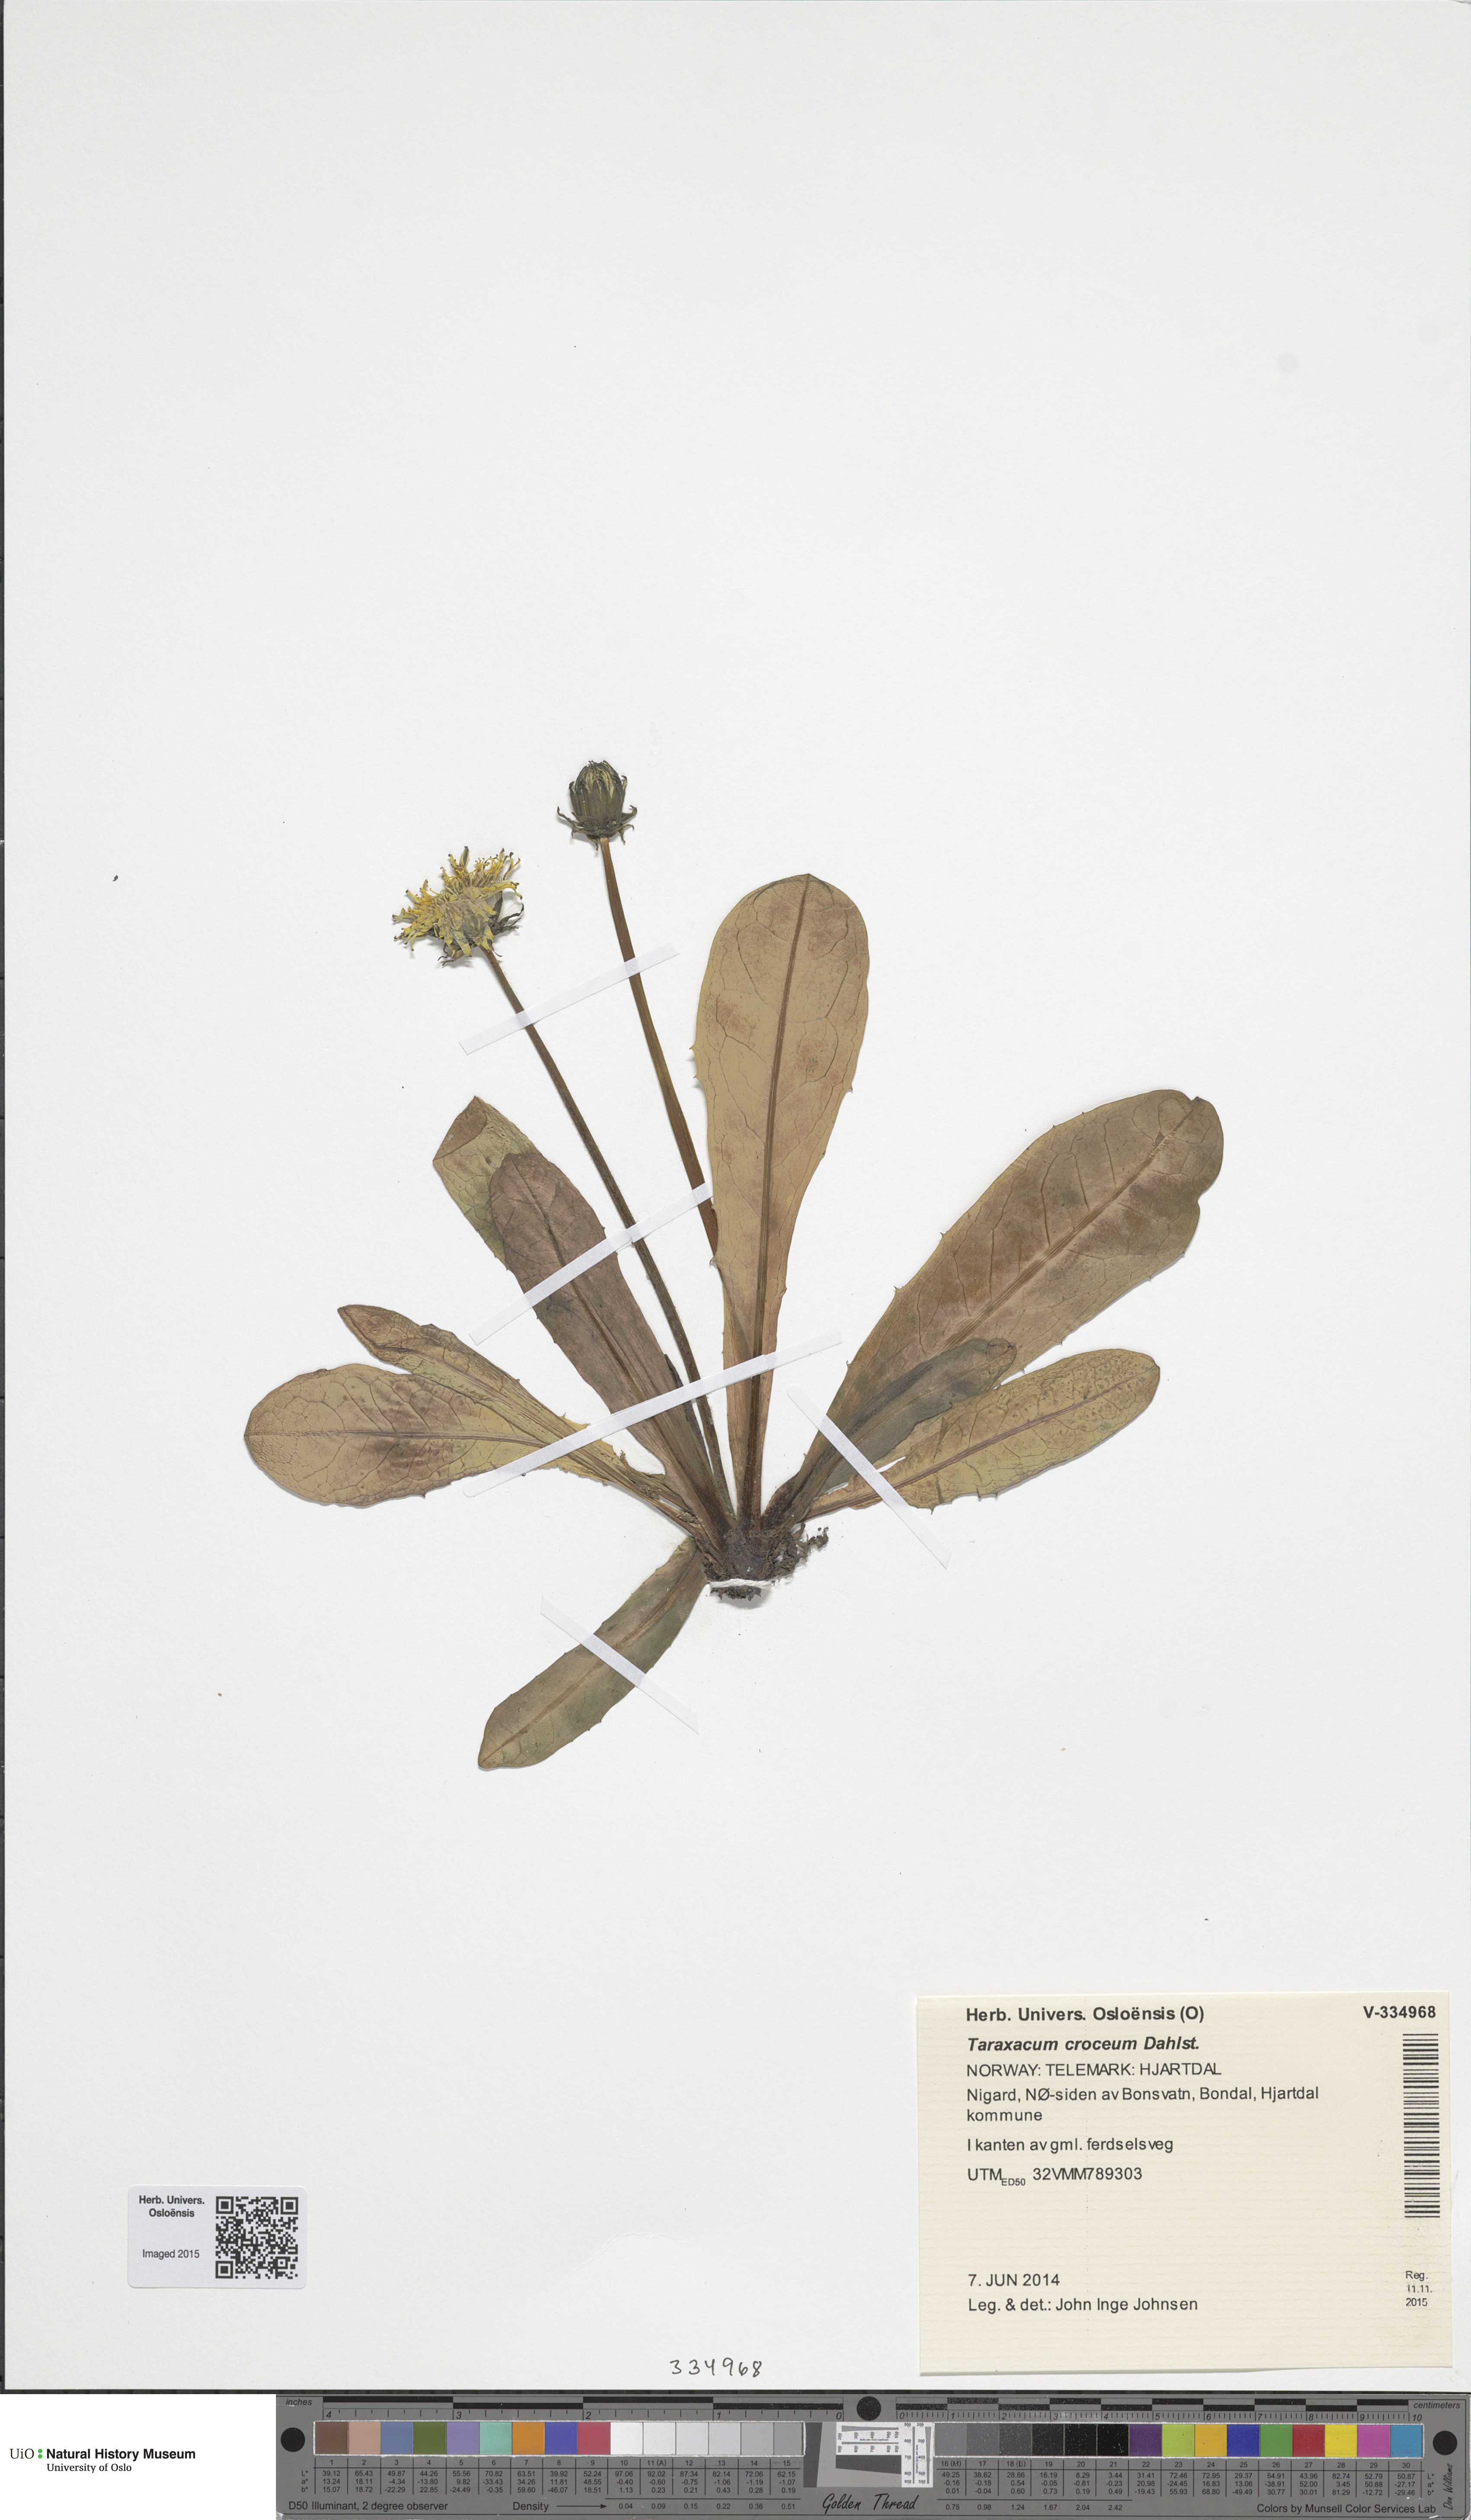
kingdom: Plantae
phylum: Tracheophyta
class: Magnoliopsida
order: Asterales
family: Asteraceae
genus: Taraxacum
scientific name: Taraxacum croceum
